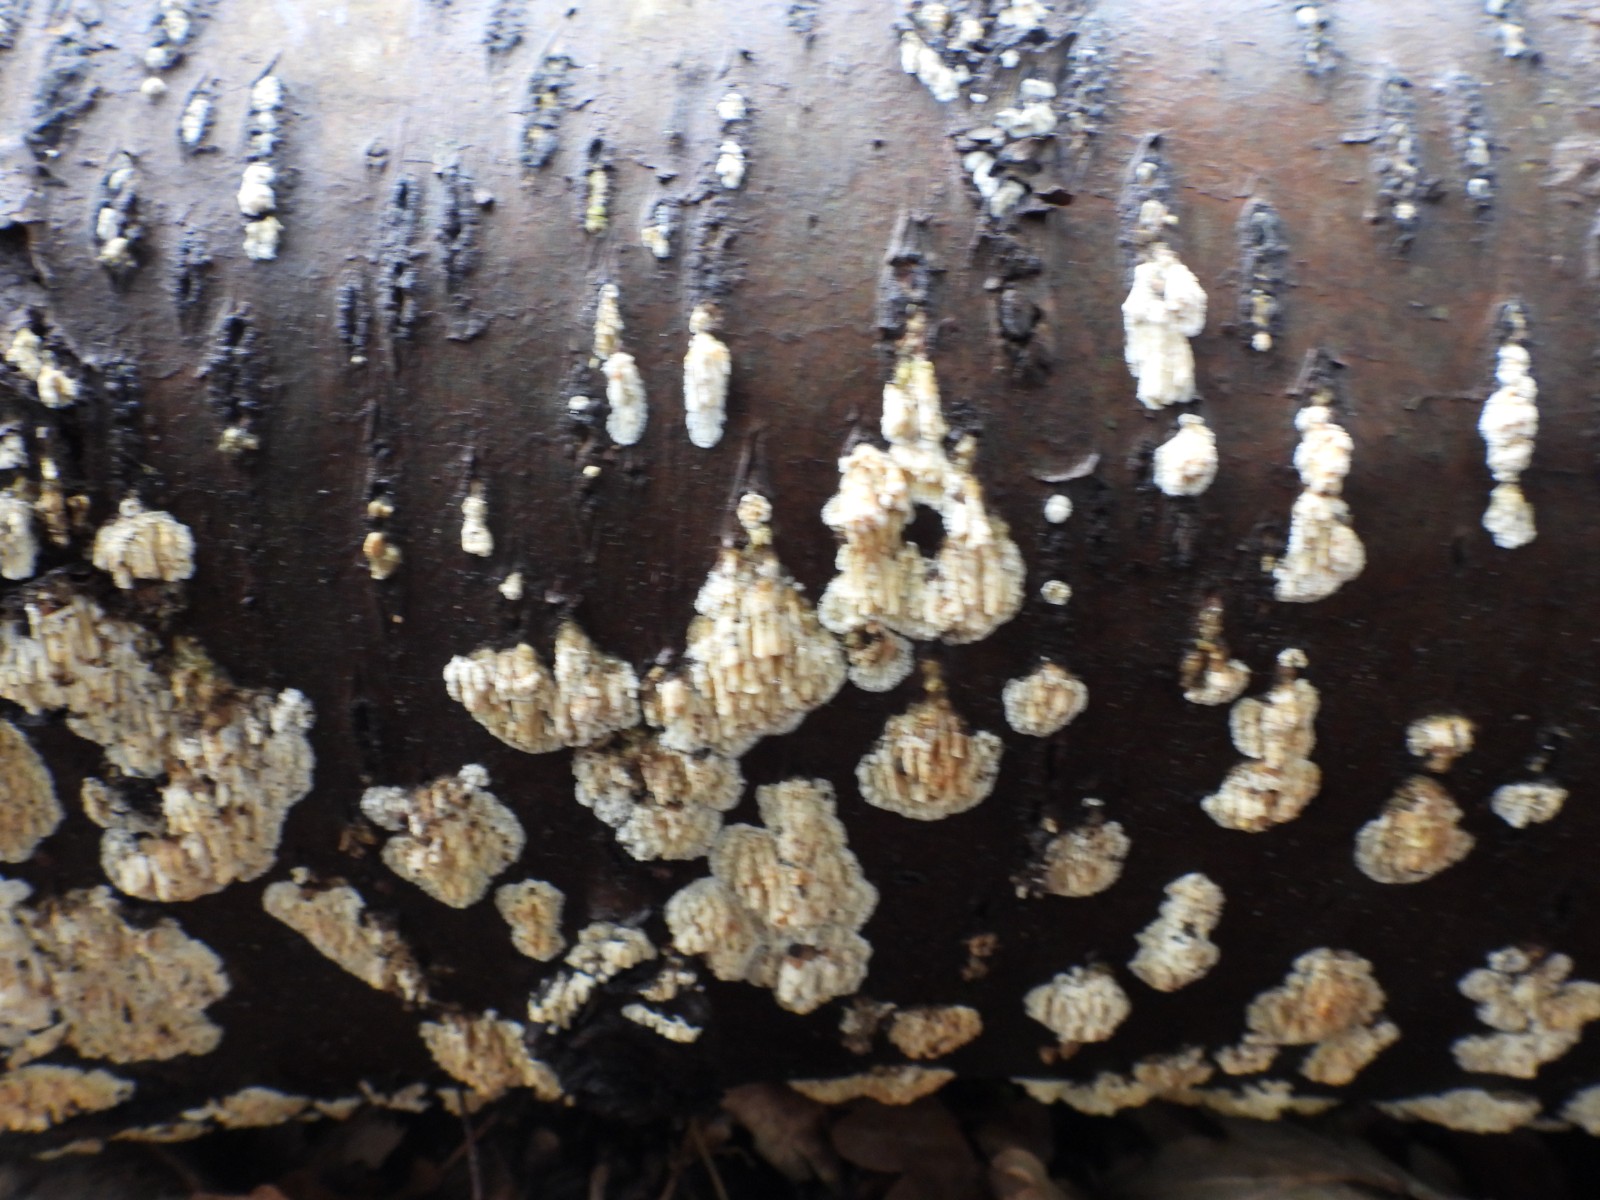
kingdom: Fungi
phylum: Basidiomycota
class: Agaricomycetes
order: Hymenochaetales
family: Schizoporaceae
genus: Xylodon
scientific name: Xylodon radula
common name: grovtandet kalkskind
